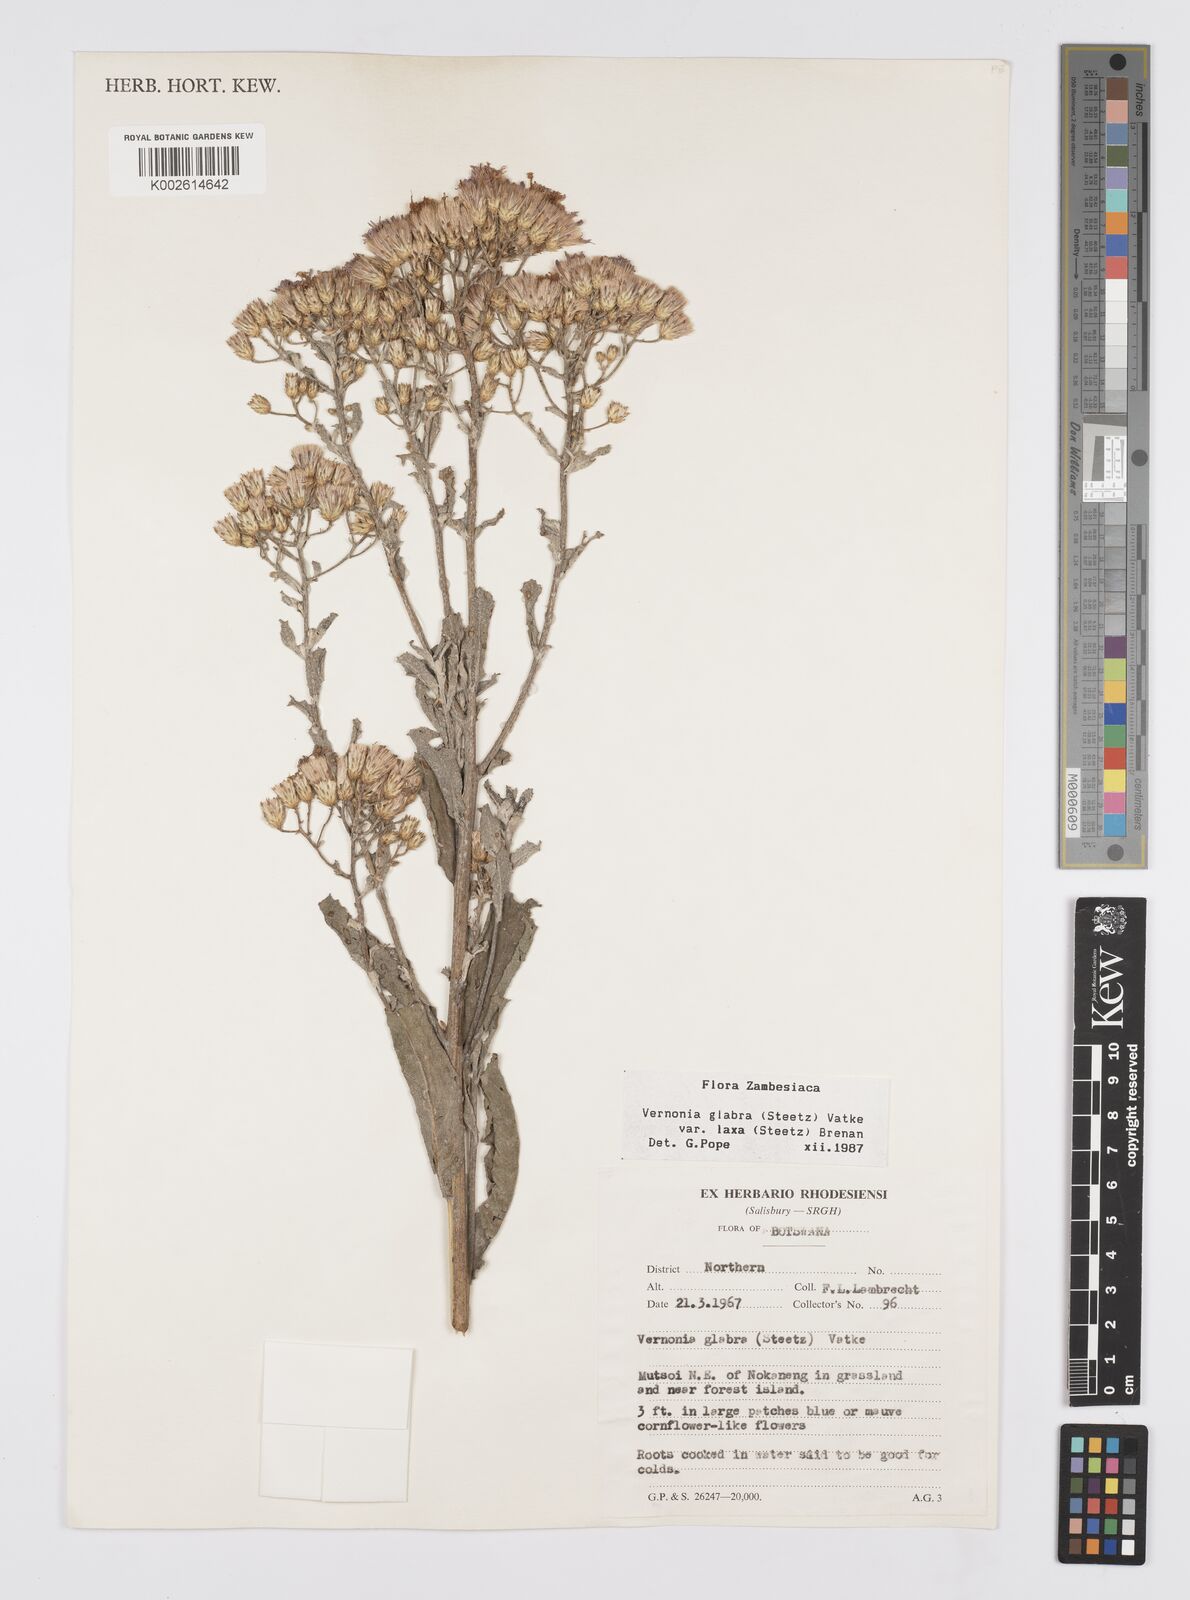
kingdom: Plantae
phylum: Tracheophyta
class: Magnoliopsida
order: Asterales
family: Asteraceae
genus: Linzia
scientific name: Linzia glabra
